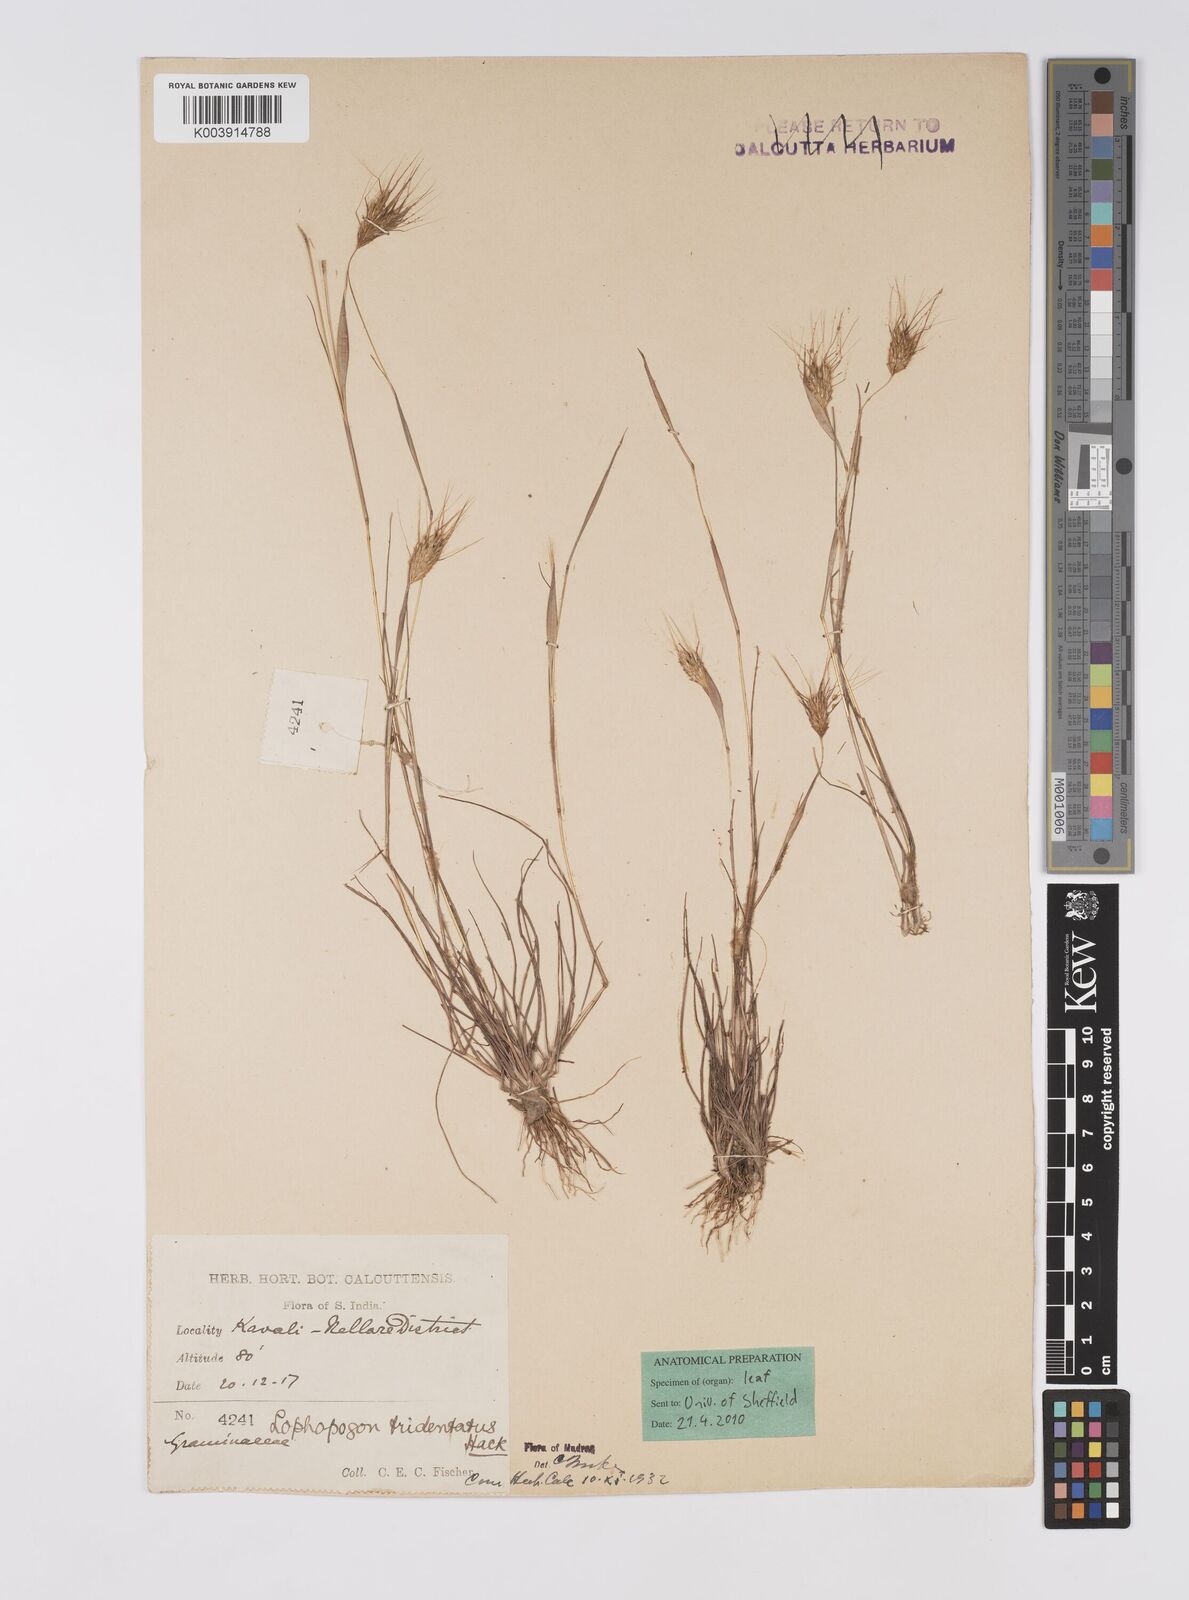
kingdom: Plantae
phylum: Tracheophyta
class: Liliopsida
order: Poales
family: Poaceae
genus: Lophopogon
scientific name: Lophopogon tridentatus
